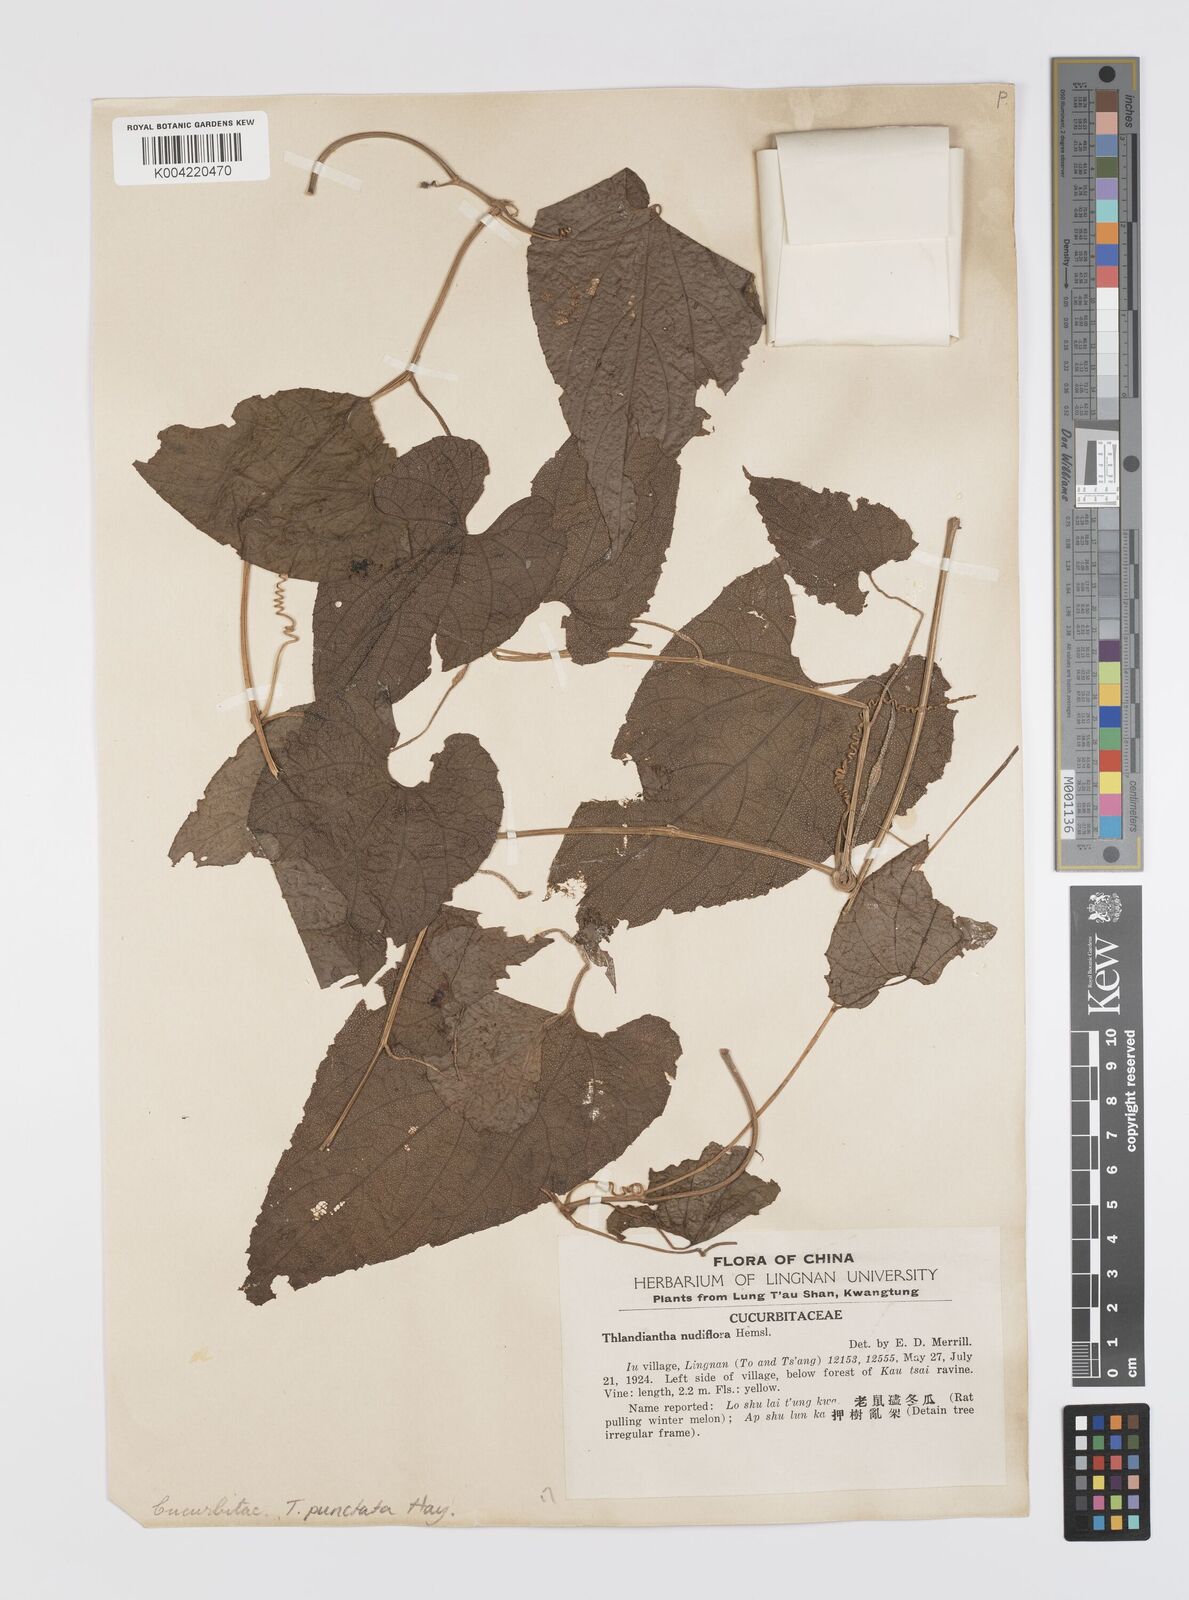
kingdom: Plantae
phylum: Tracheophyta
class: Magnoliopsida
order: Cucurbitales
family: Cucurbitaceae
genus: Thladiantha
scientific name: Thladiantha punctata
